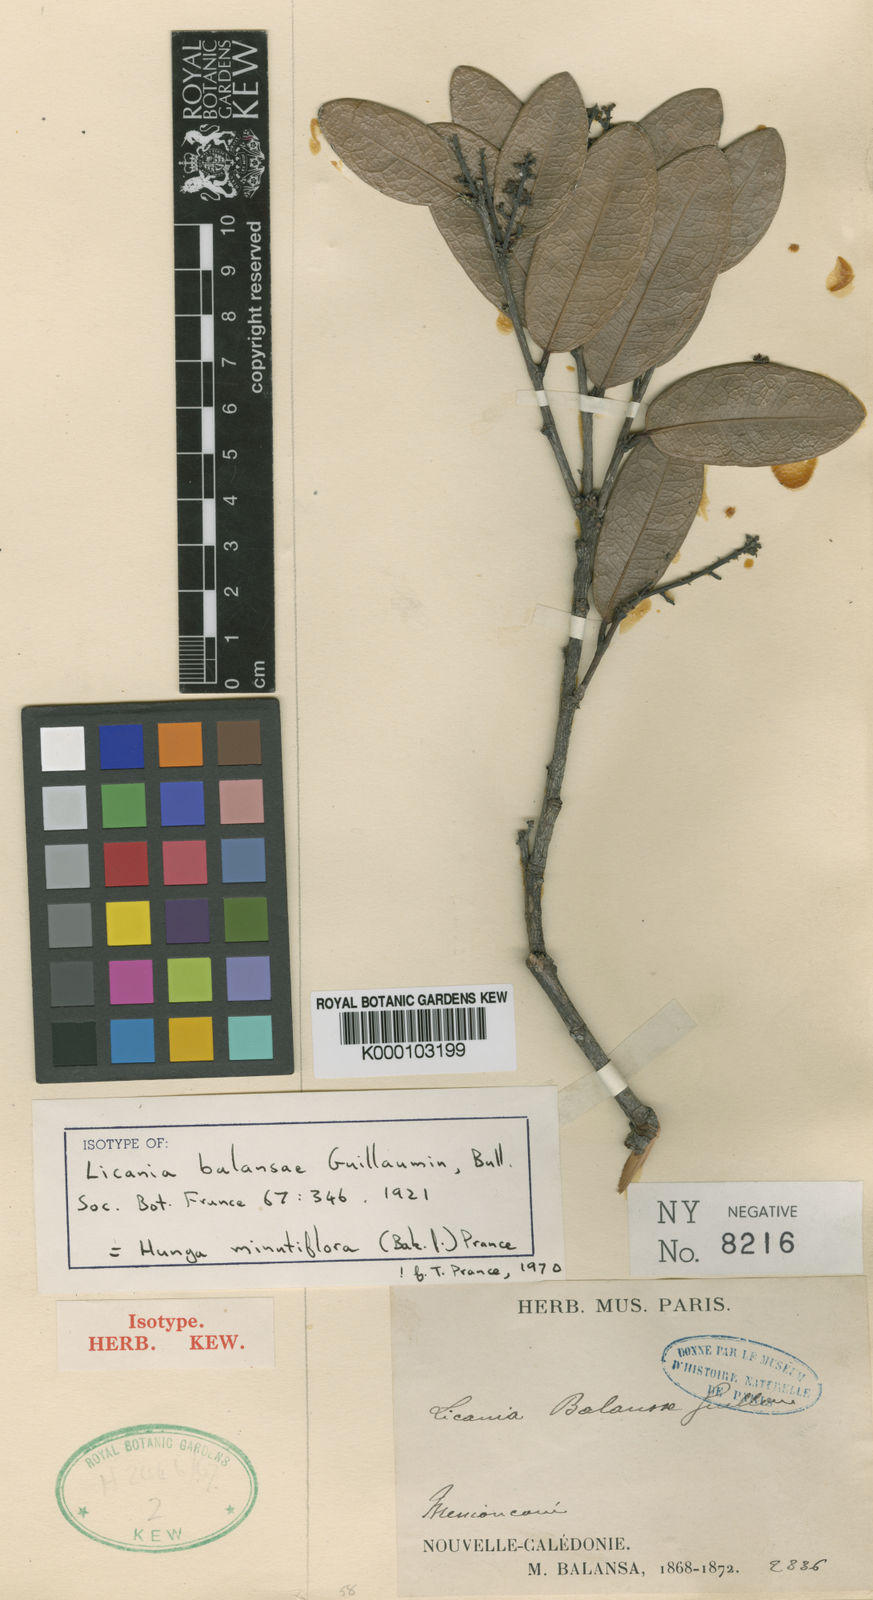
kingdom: Plantae
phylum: Tracheophyta
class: Magnoliopsida
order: Malpighiales
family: Chrysobalanaceae
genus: Hunga
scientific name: Hunga minutiflora
